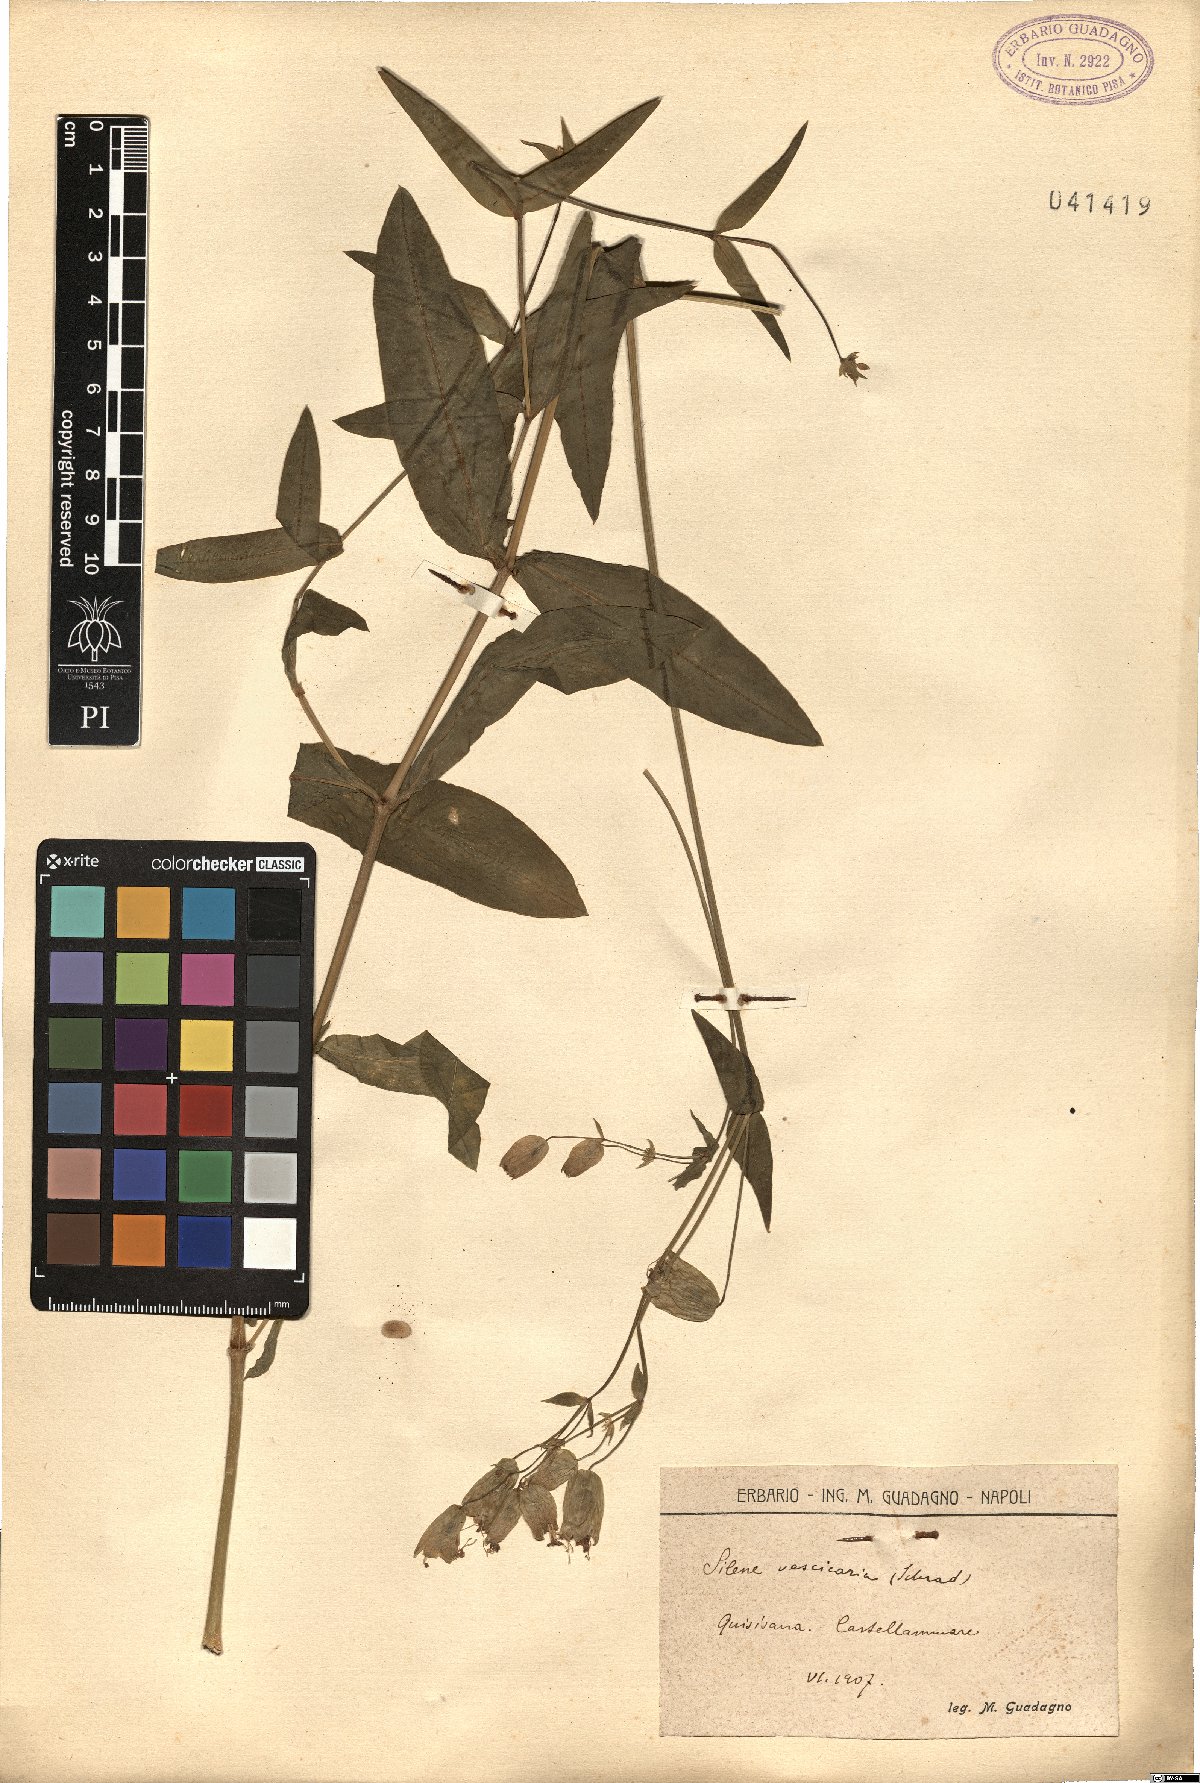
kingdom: Plantae
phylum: Tracheophyta
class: Magnoliopsida
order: Caryophyllales
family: Caryophyllaceae
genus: Silene
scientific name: Silene vulgaris
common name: Bladder campion
